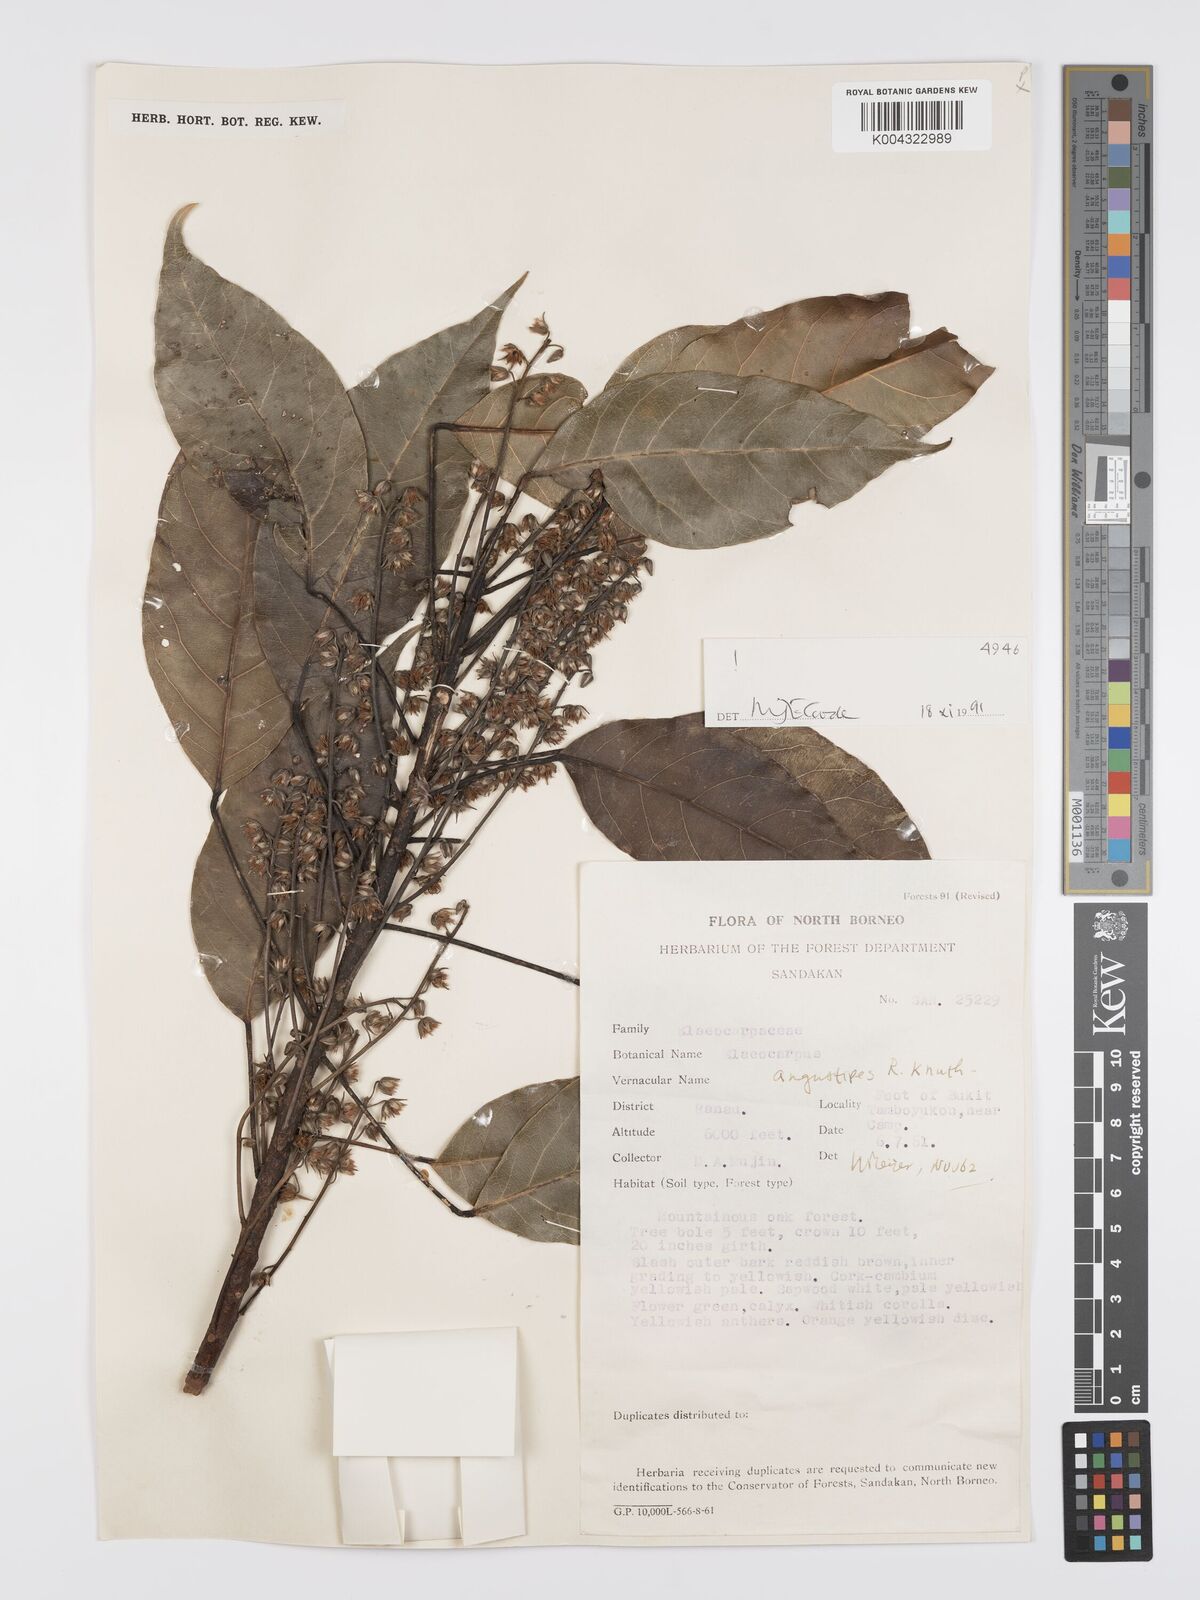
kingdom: Plantae
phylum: Tracheophyta
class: Magnoliopsida
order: Oxalidales
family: Elaeocarpaceae
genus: Elaeocarpus
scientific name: Elaeocarpus angustipes
